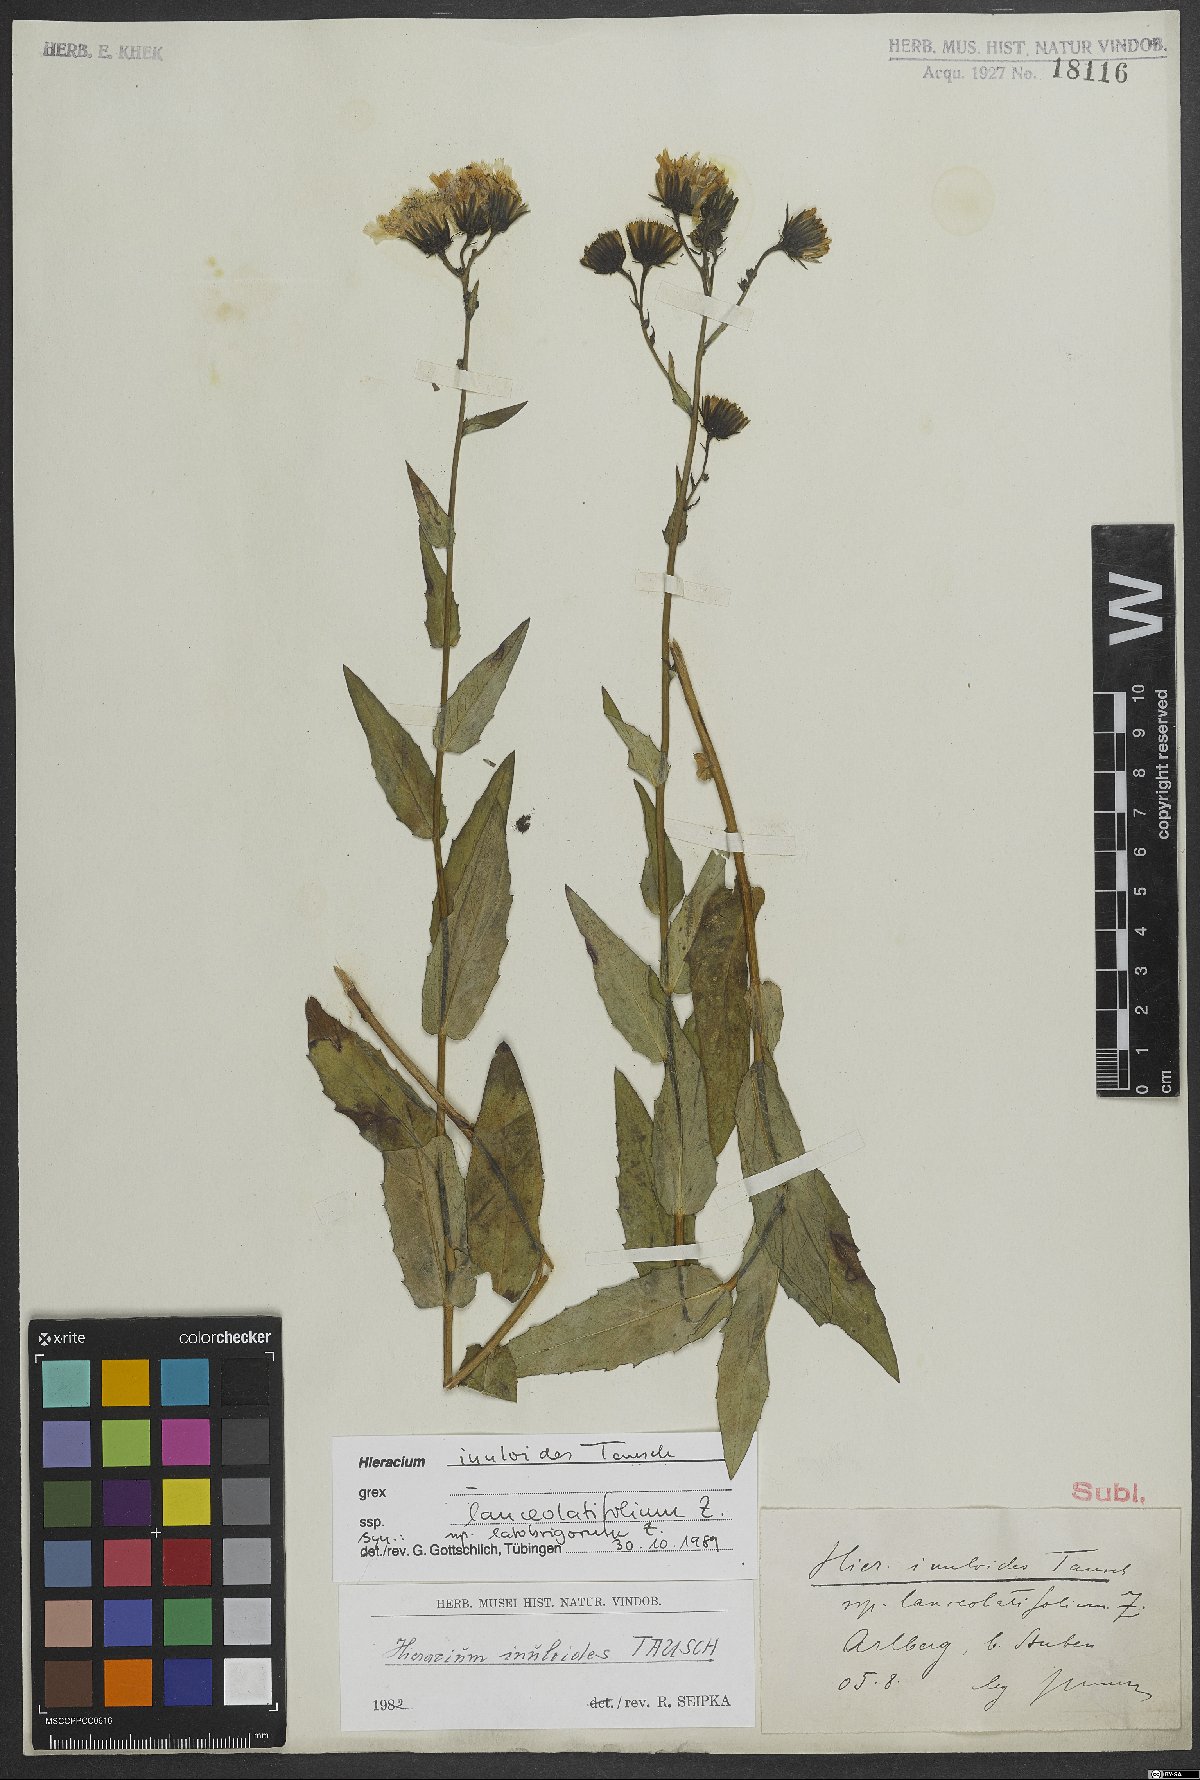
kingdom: Plantae
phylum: Tracheophyta
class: Magnoliopsida
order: Asterales
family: Asteraceae
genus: Hieracium
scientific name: Hieracium inuloides
